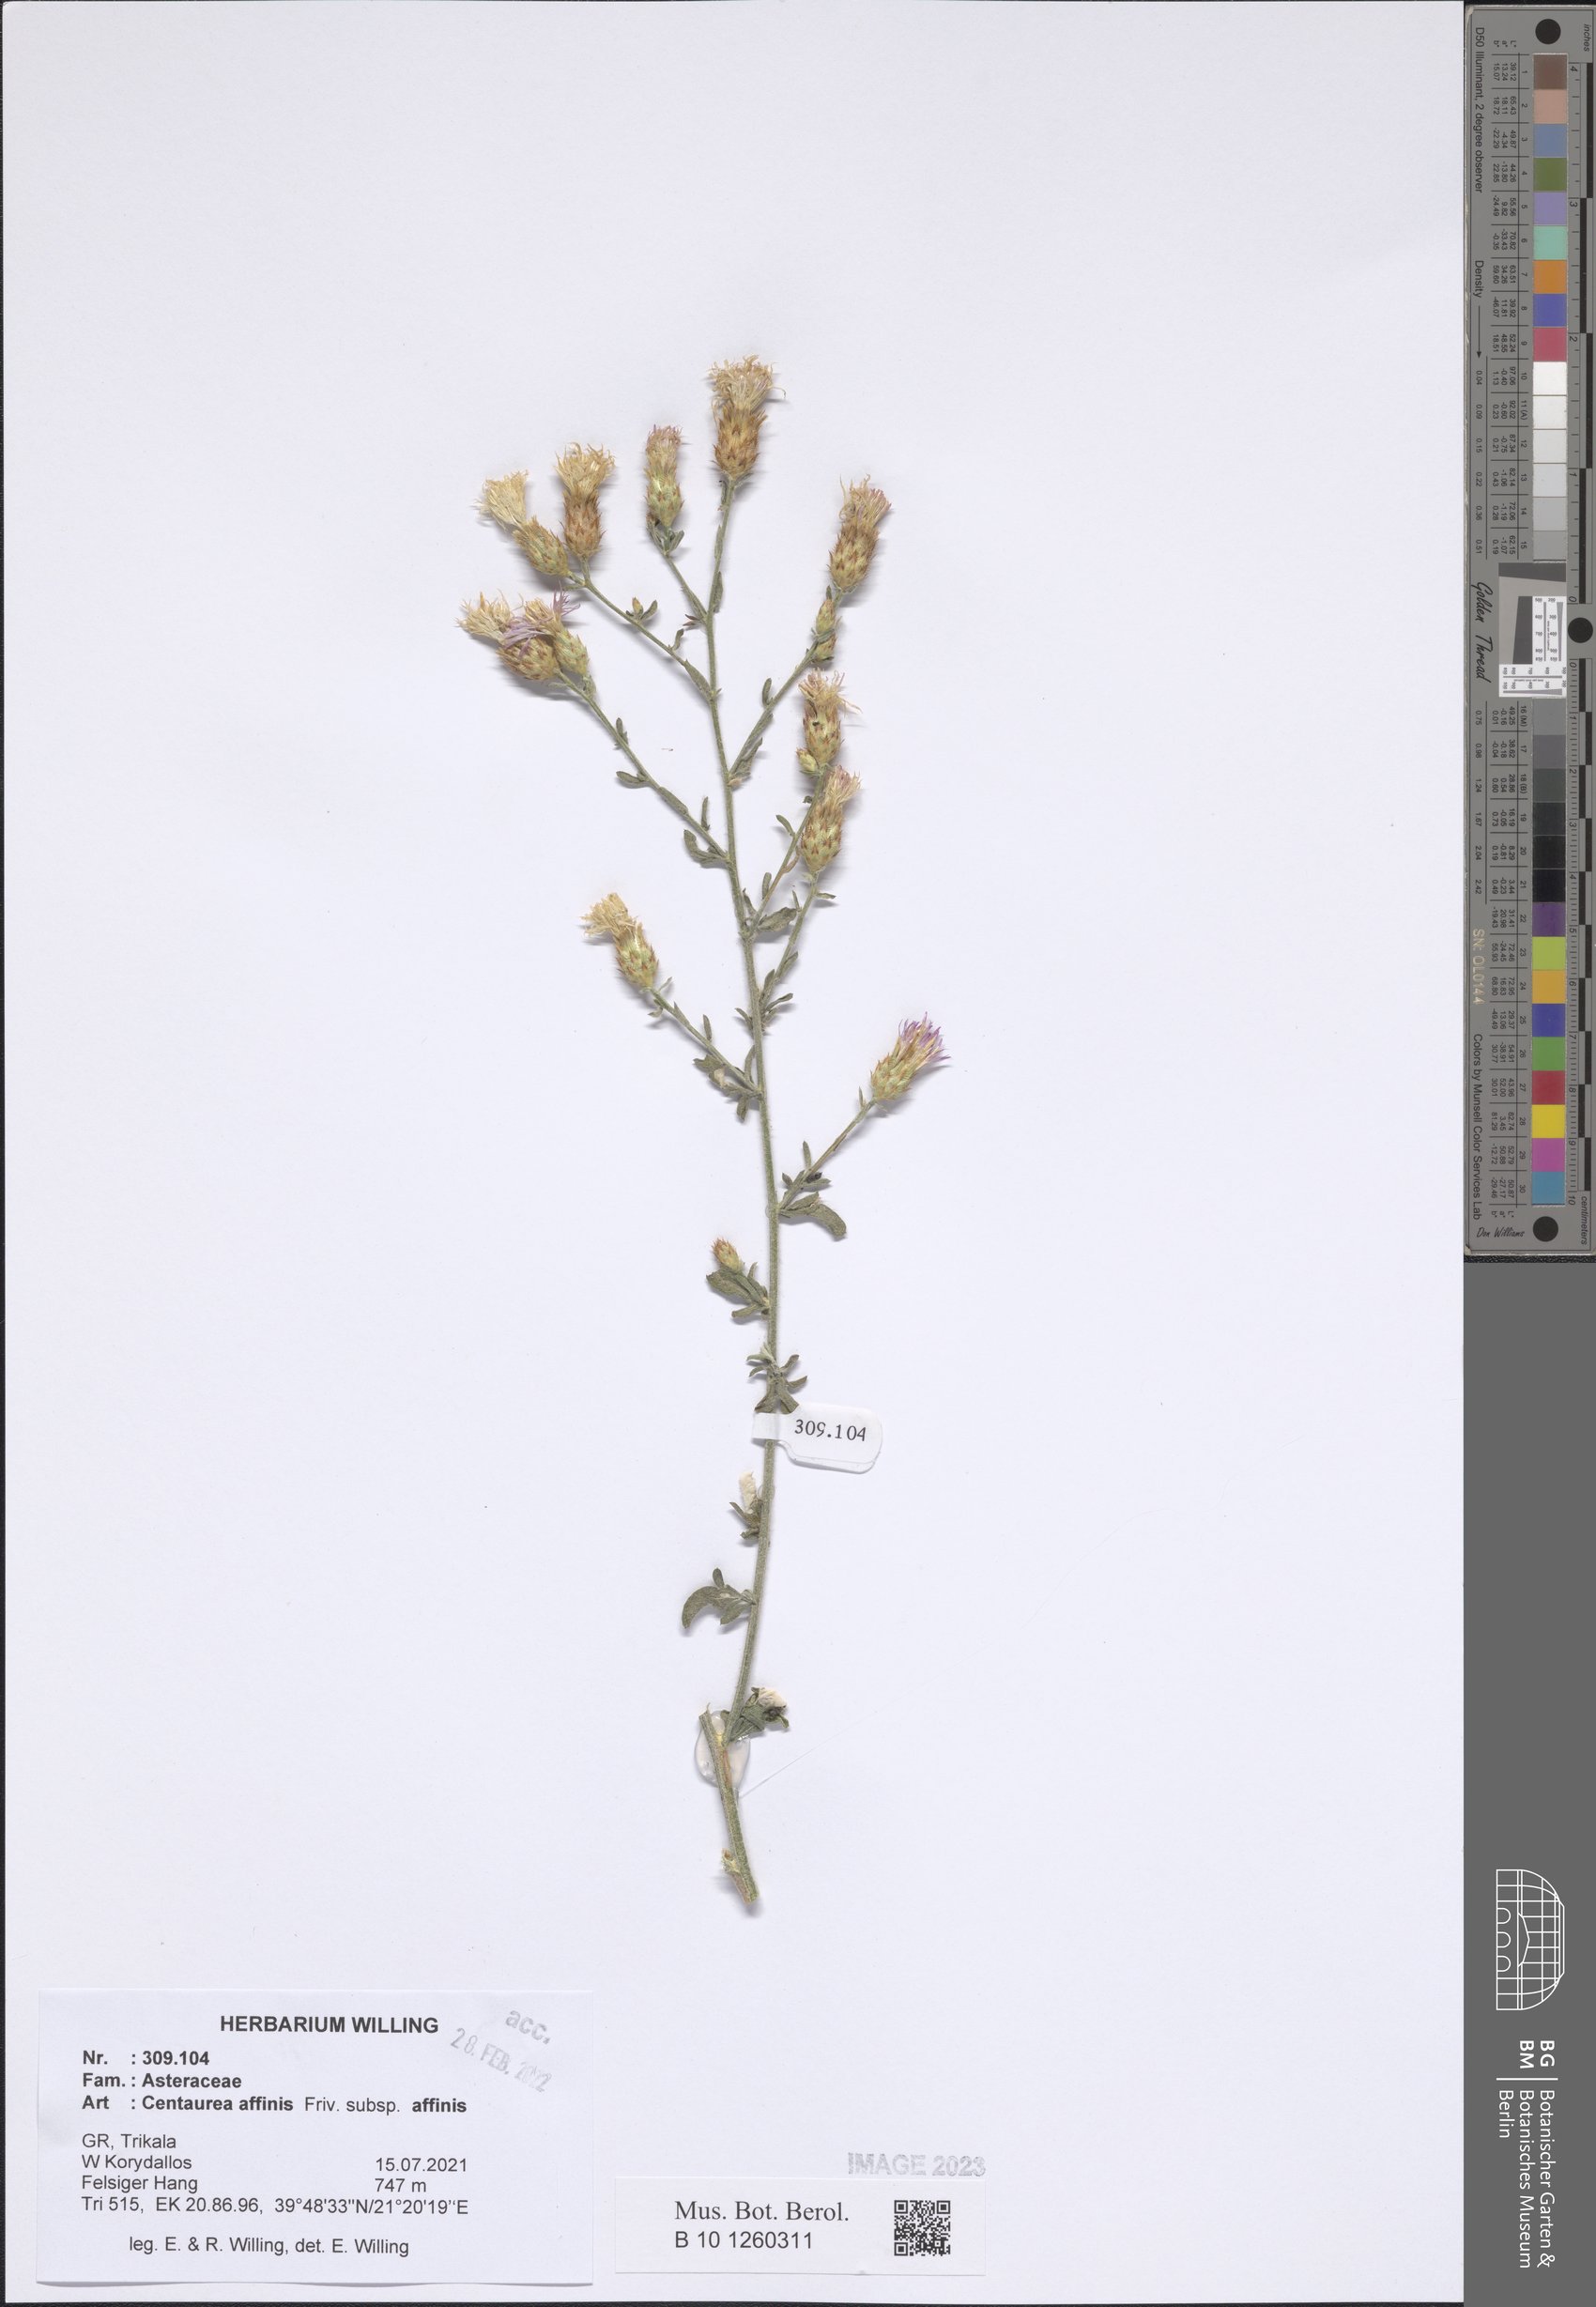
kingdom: Plantae
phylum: Tracheophyta
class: Magnoliopsida
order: Asterales
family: Asteraceae
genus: Centaurea
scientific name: Centaurea affinis
